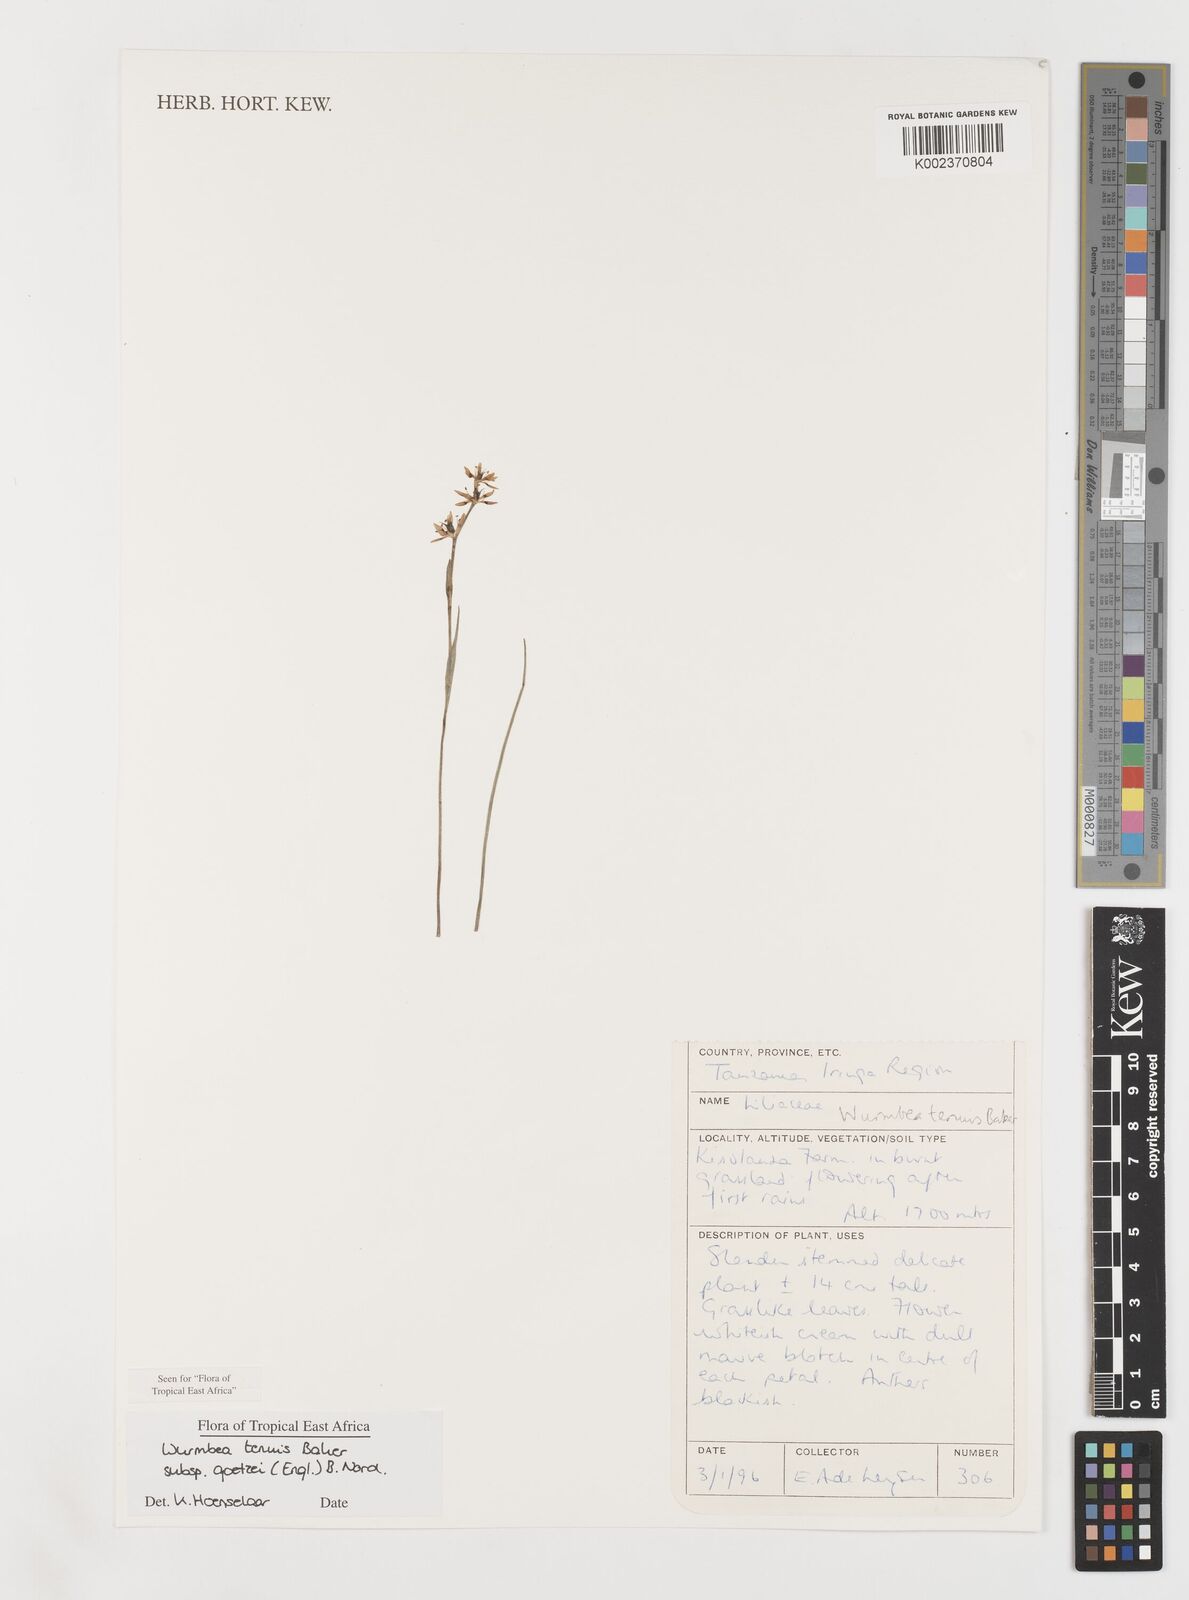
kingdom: Plantae
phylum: Tracheophyta
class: Liliopsida
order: Liliales
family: Colchicaceae
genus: Wurmbea
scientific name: Wurmbea tenuis
